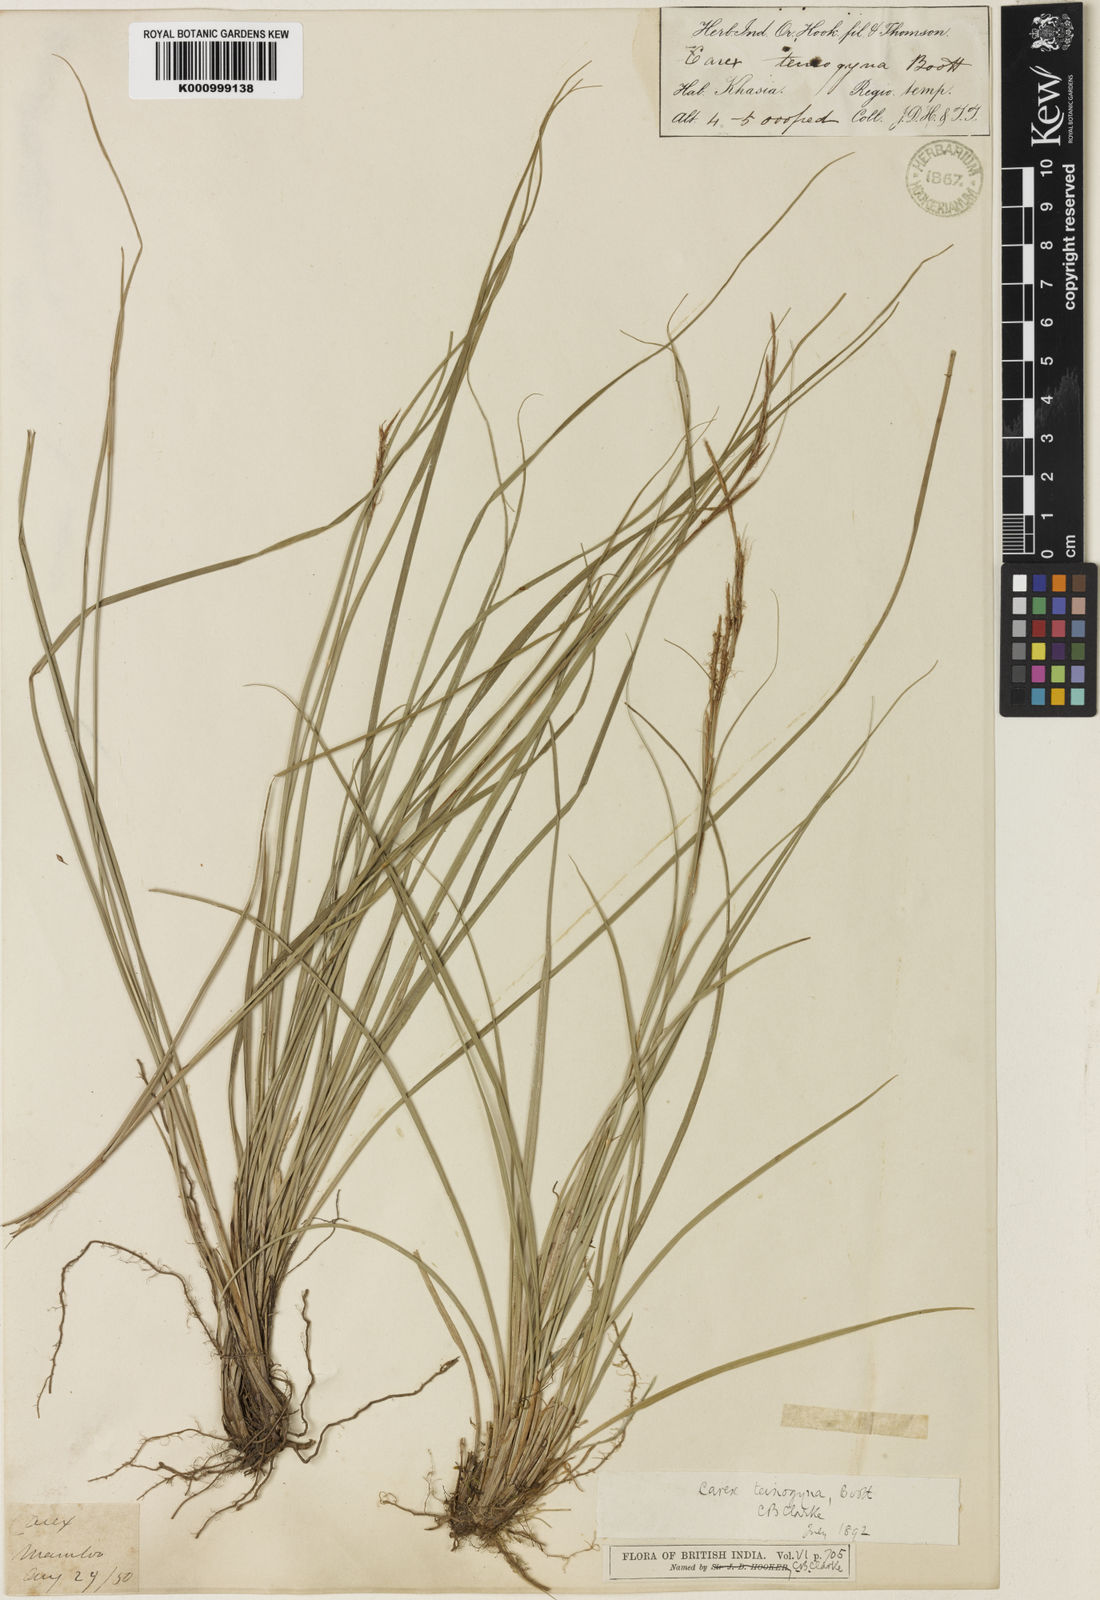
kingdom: Plantae
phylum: Tracheophyta
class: Liliopsida
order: Poales
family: Cyperaceae
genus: Carex
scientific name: Carex teinogyna
